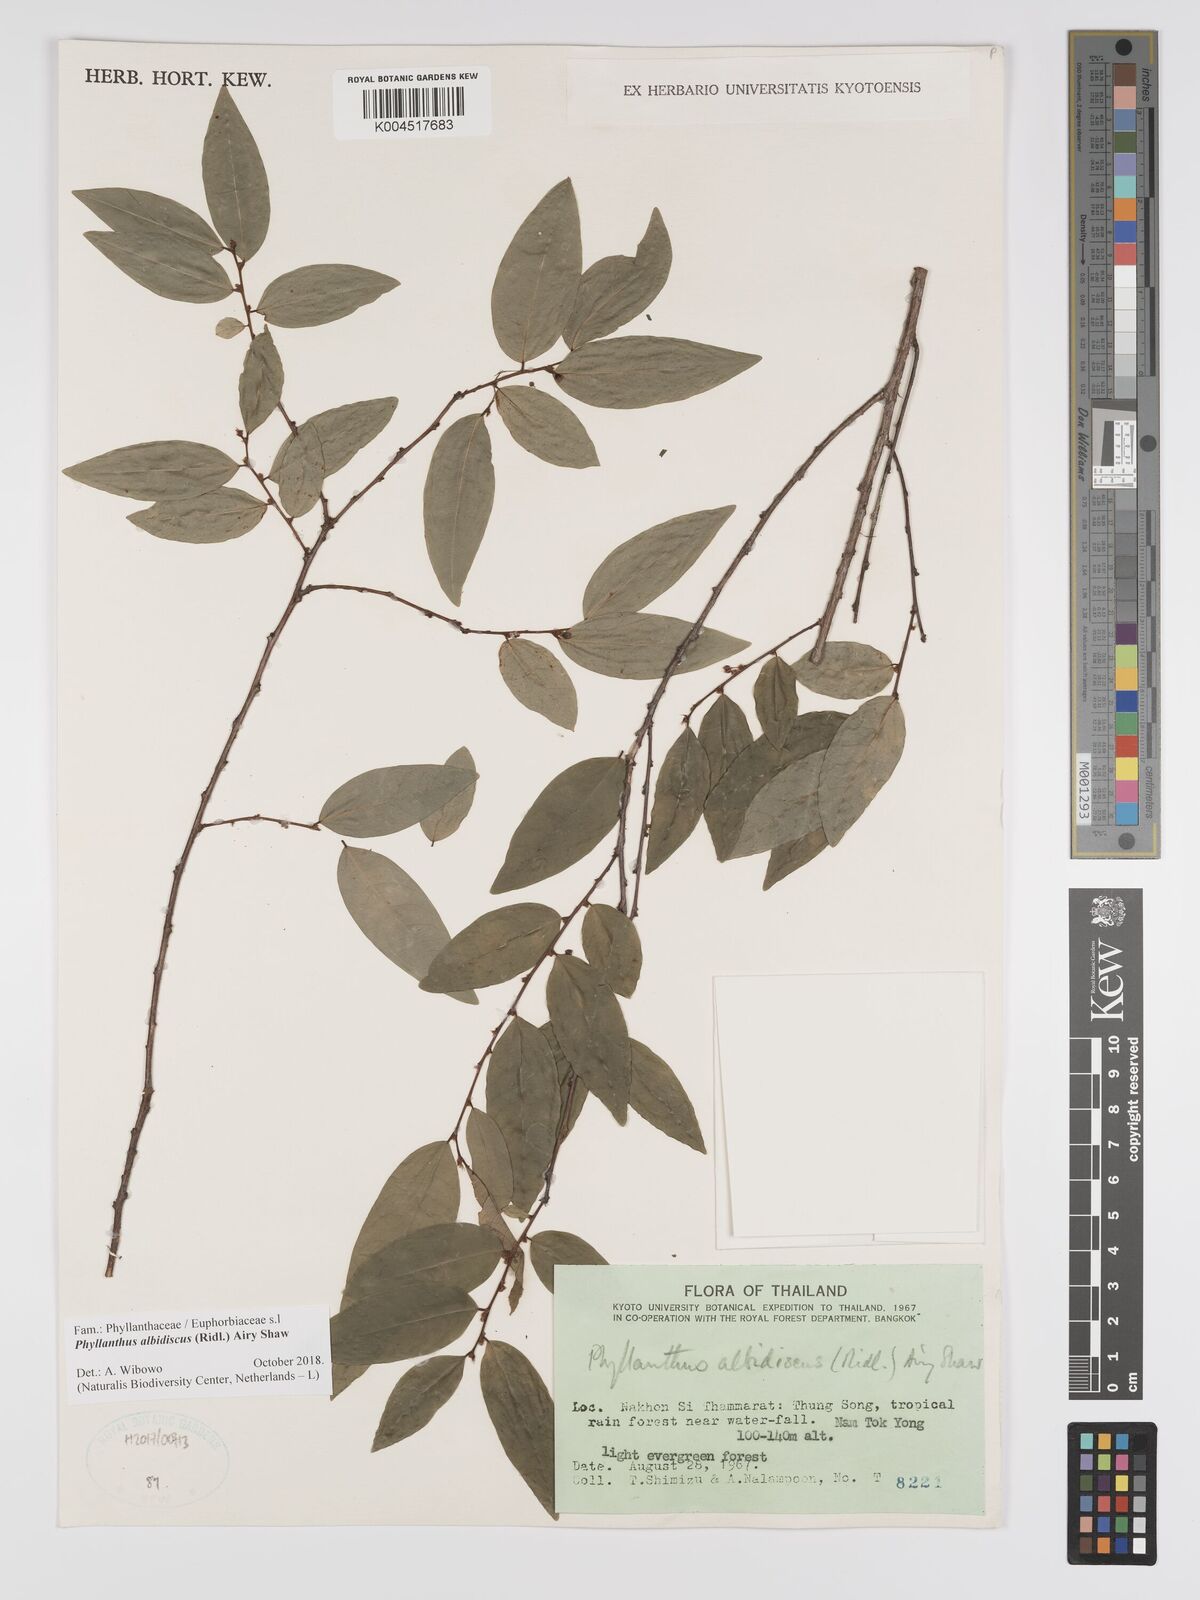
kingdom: Plantae
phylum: Tracheophyta
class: Magnoliopsida
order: Malpighiales
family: Phyllanthaceae
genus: Phyllanthus
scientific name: Phyllanthus albidiscus
